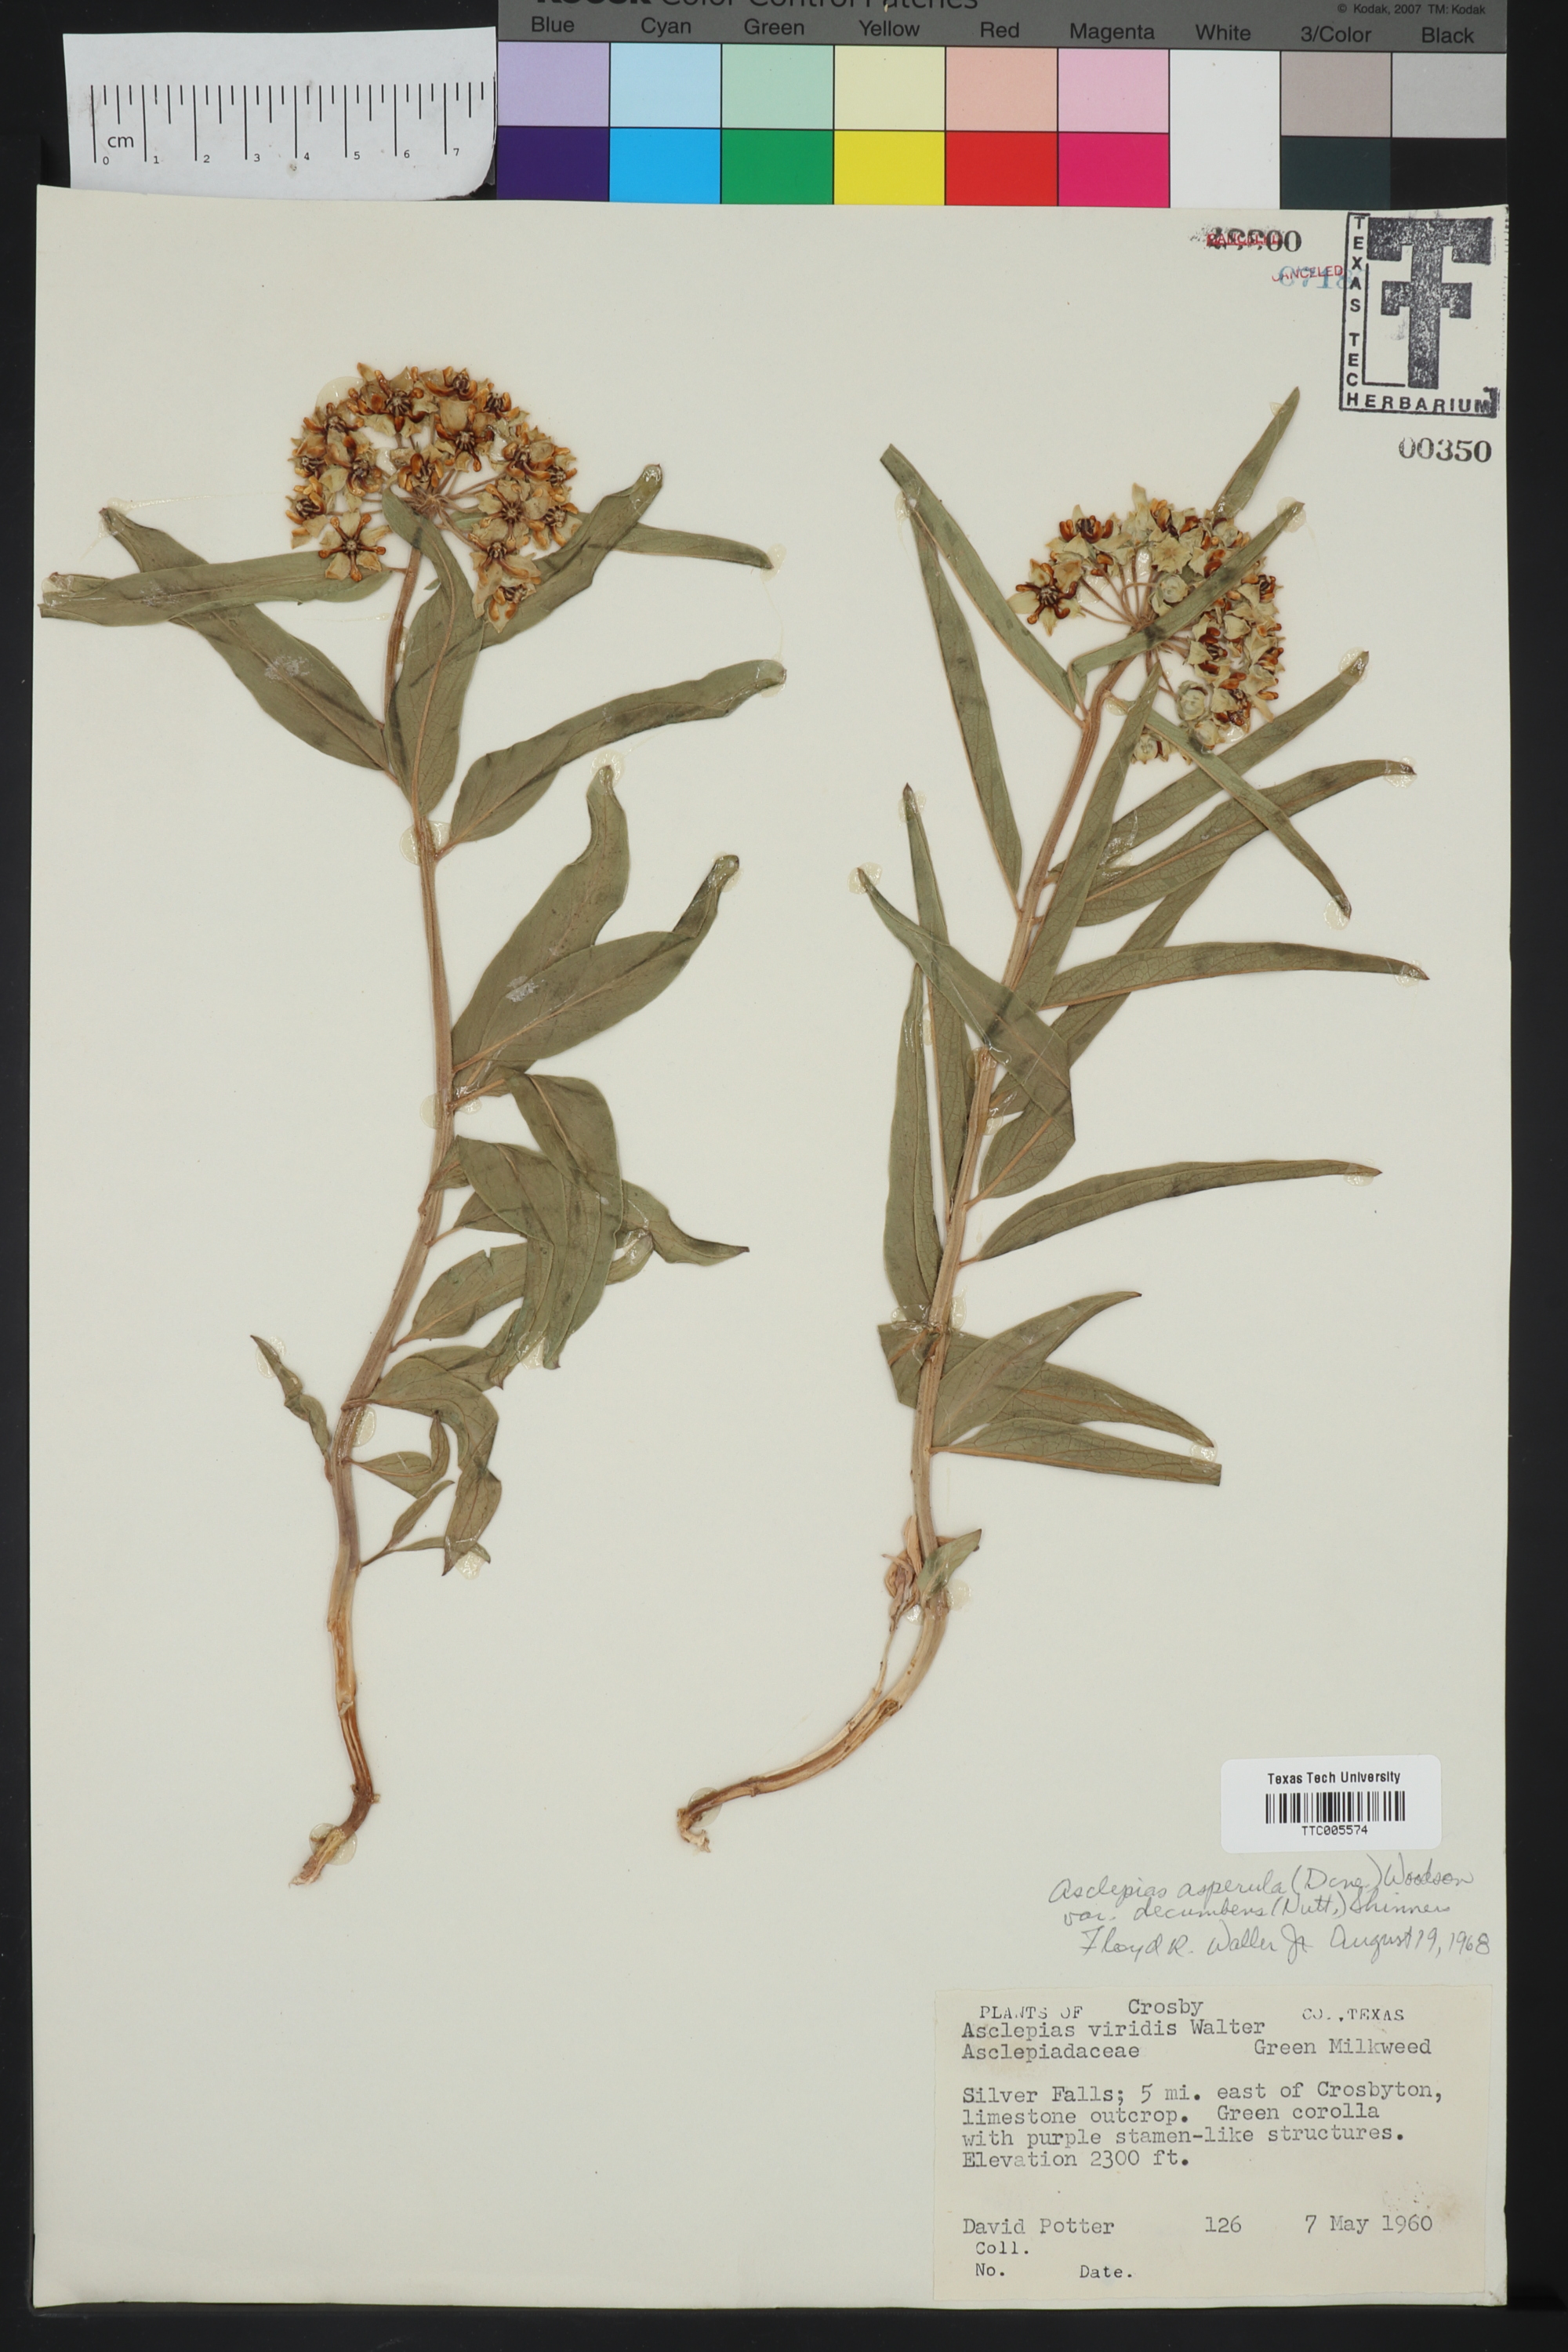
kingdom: Plantae
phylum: Tracheophyta
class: Magnoliopsida
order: Gentianales
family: Apocynaceae
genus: Asclepias
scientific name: Asclepias asperula
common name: Antelope horns
